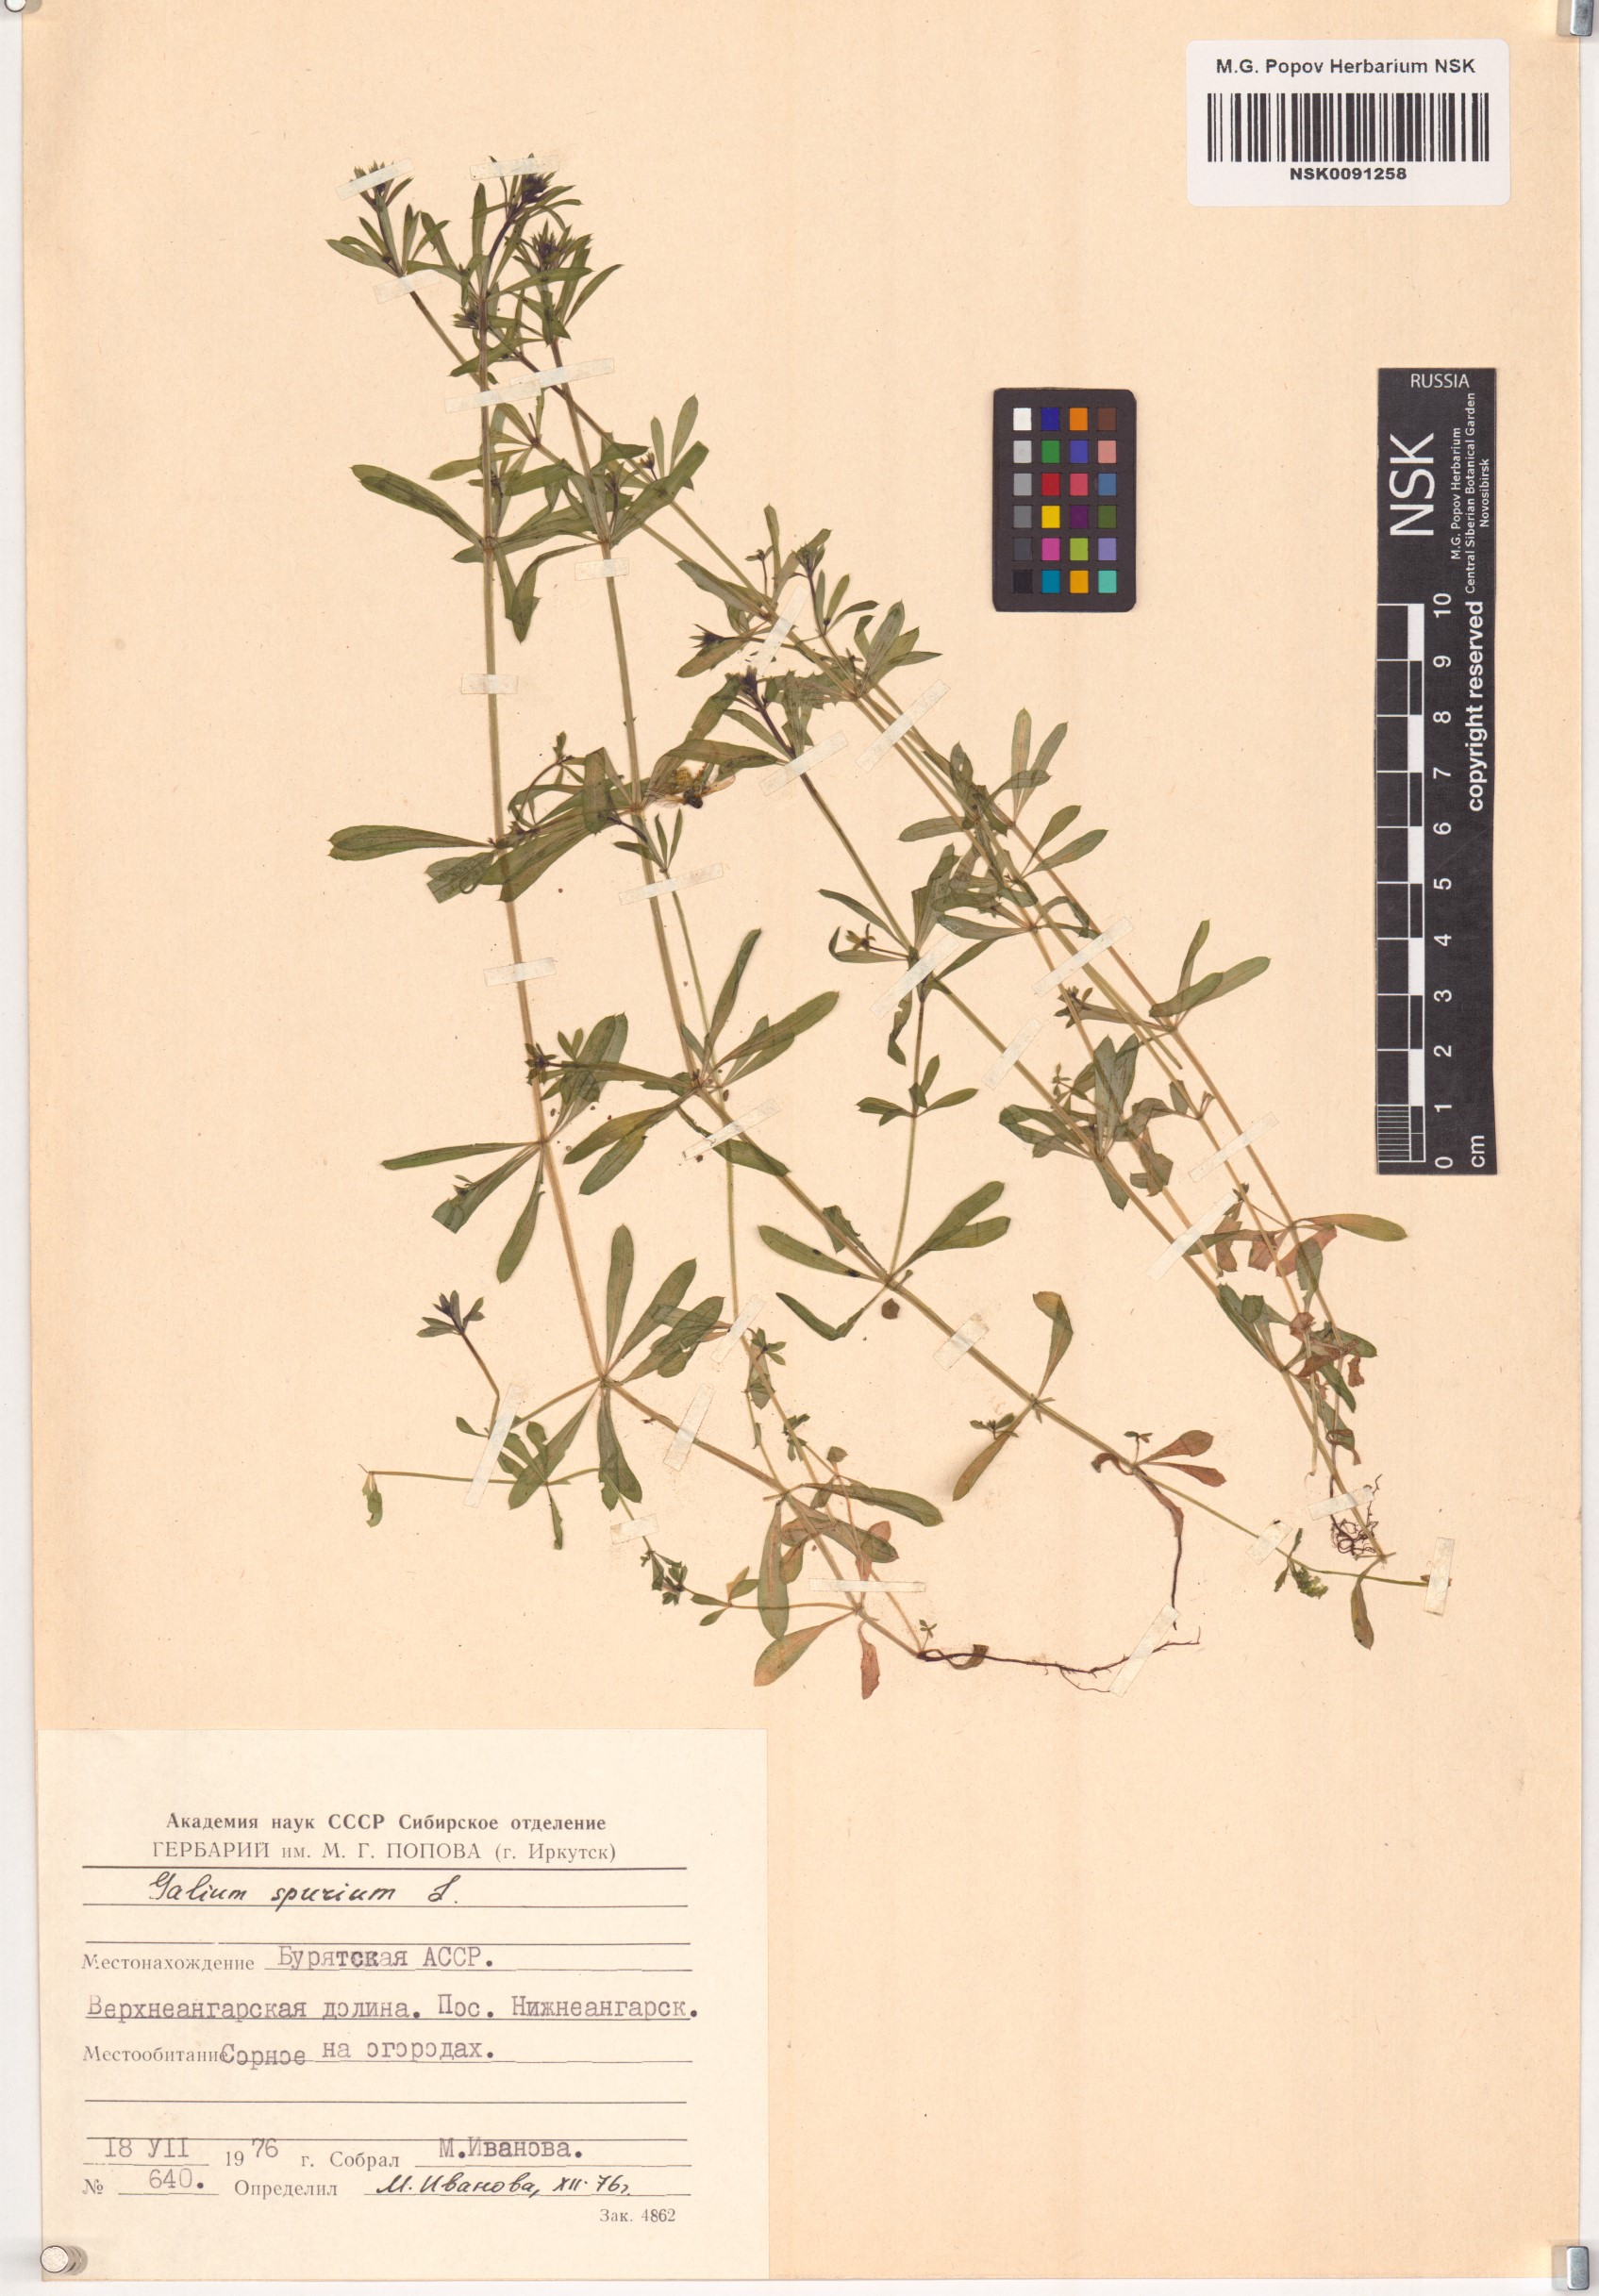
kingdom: Plantae
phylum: Tracheophyta
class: Magnoliopsida
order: Gentianales
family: Rubiaceae
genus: Galium
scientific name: Galium spurium
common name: False cleavers
